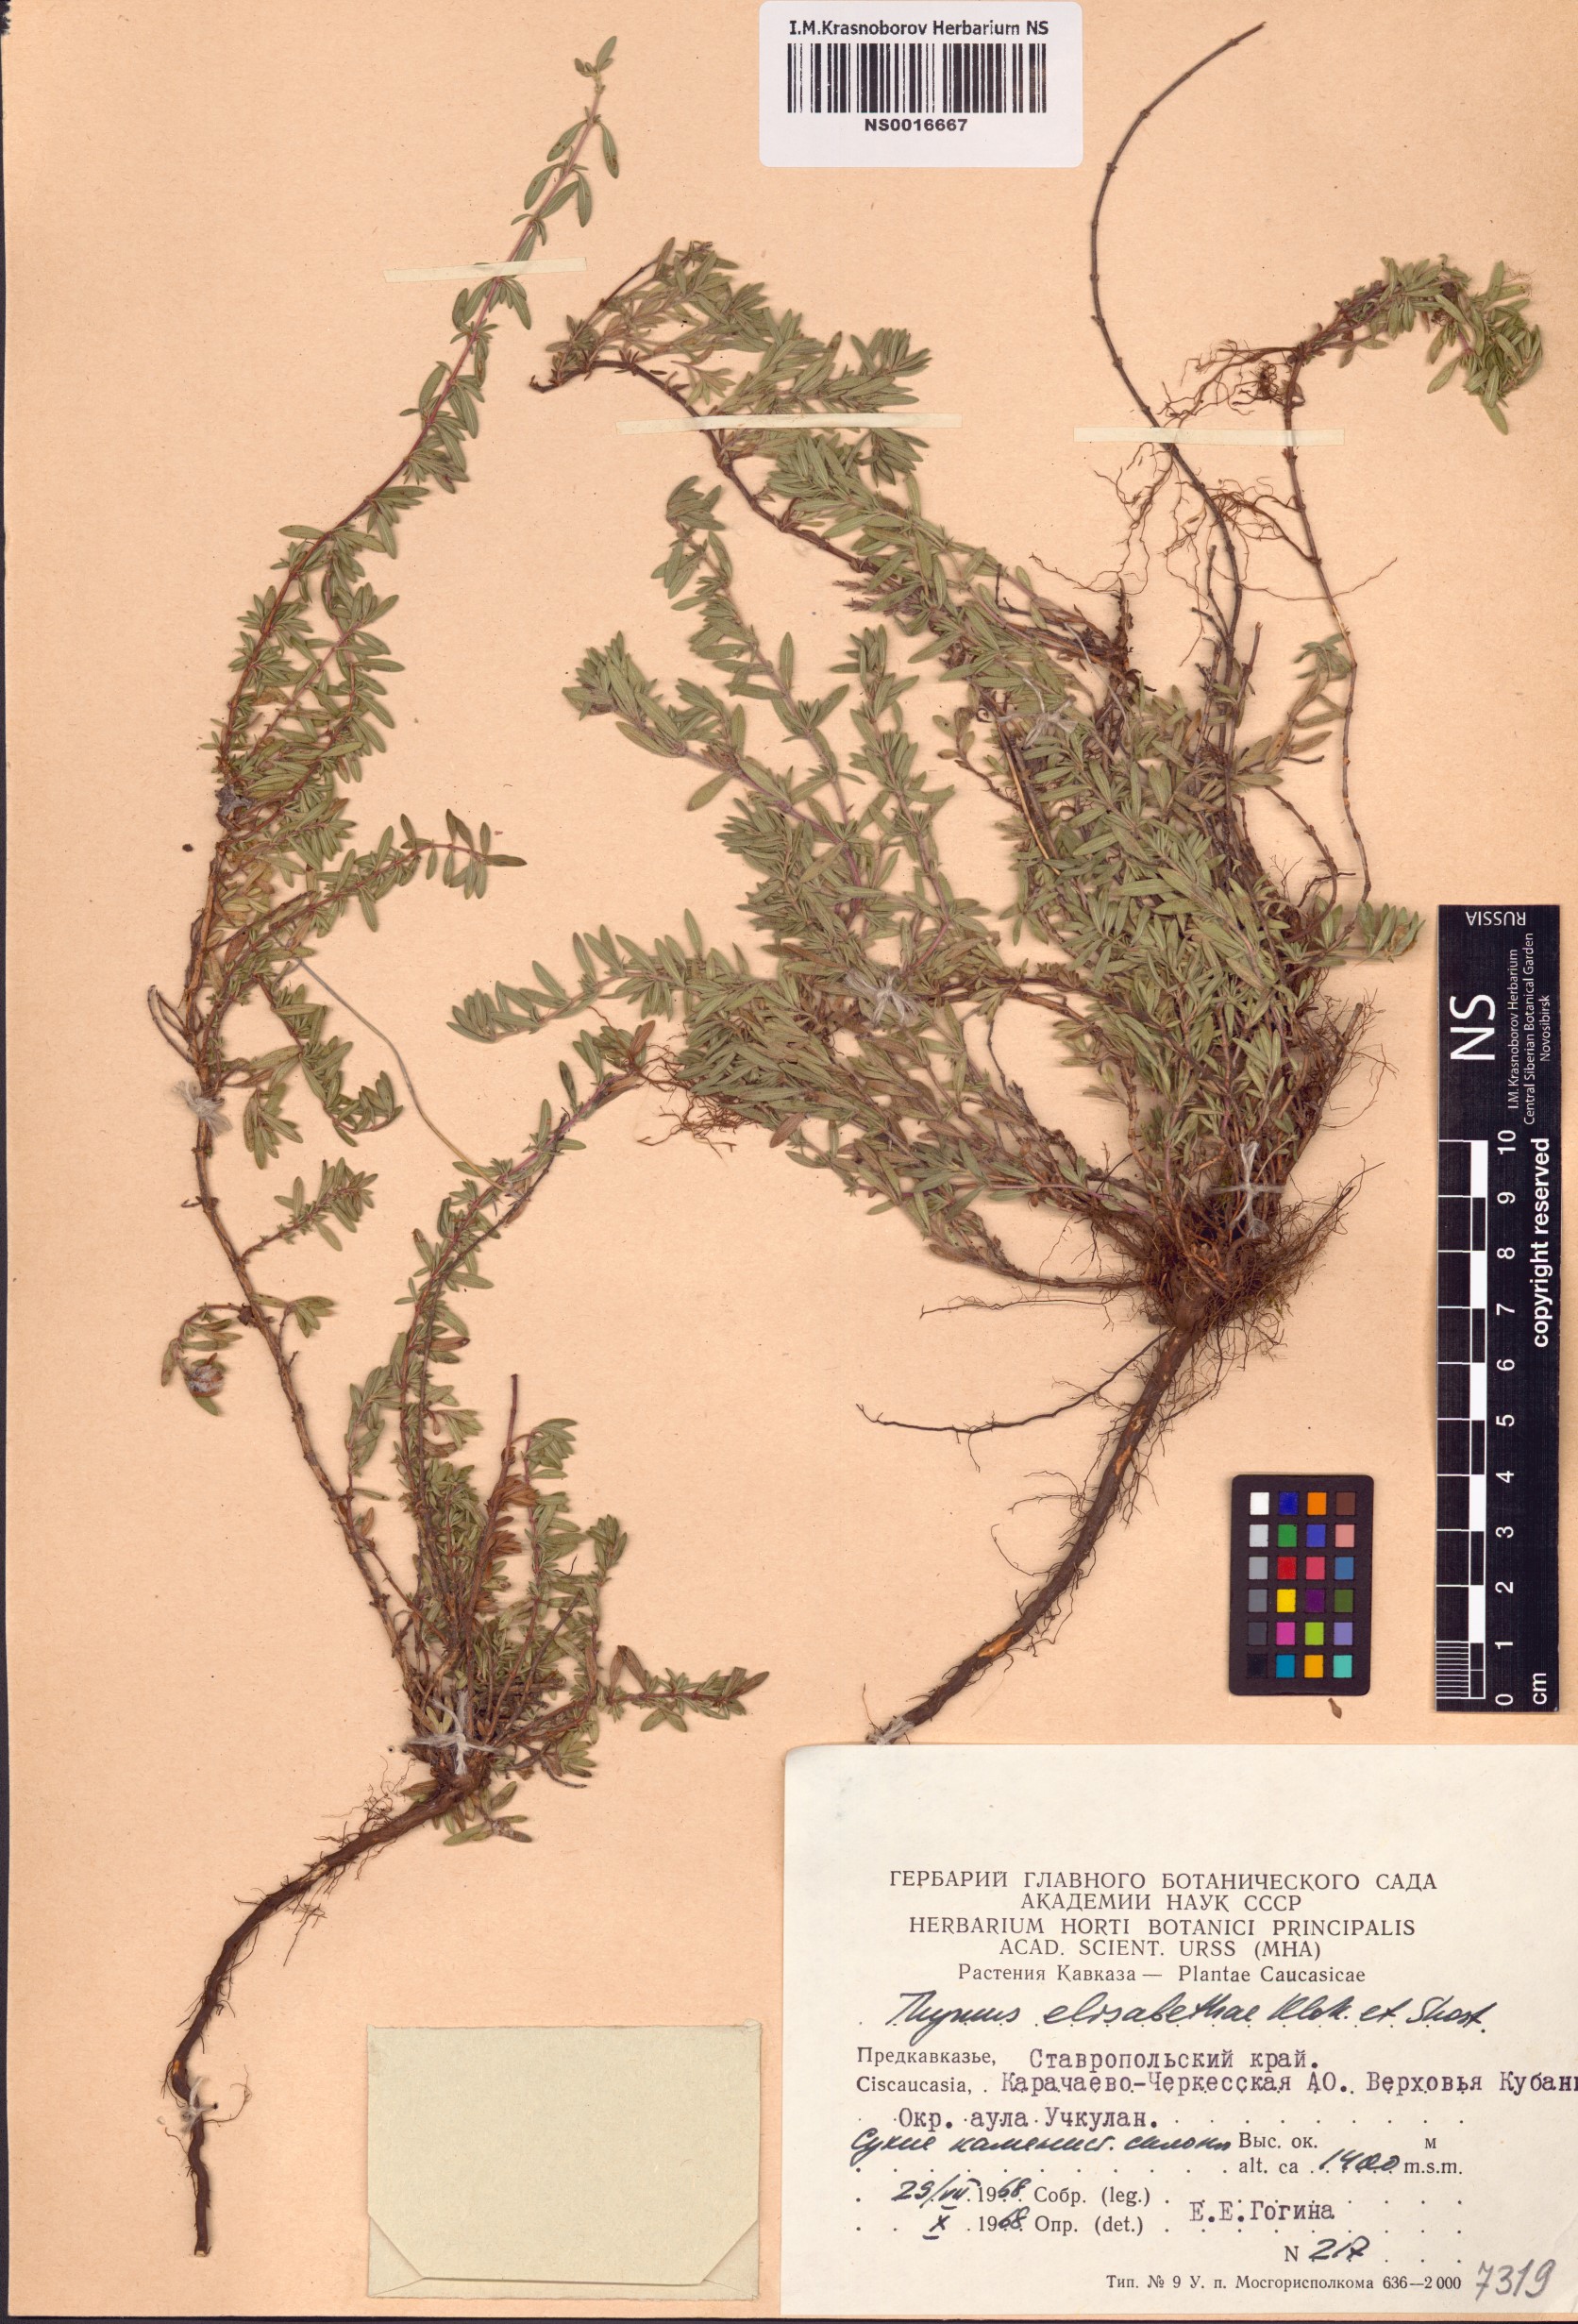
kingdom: Plantae
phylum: Tracheophyta
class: Magnoliopsida
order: Lamiales
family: Lamiaceae
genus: Thymus
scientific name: Thymus elisabethae
